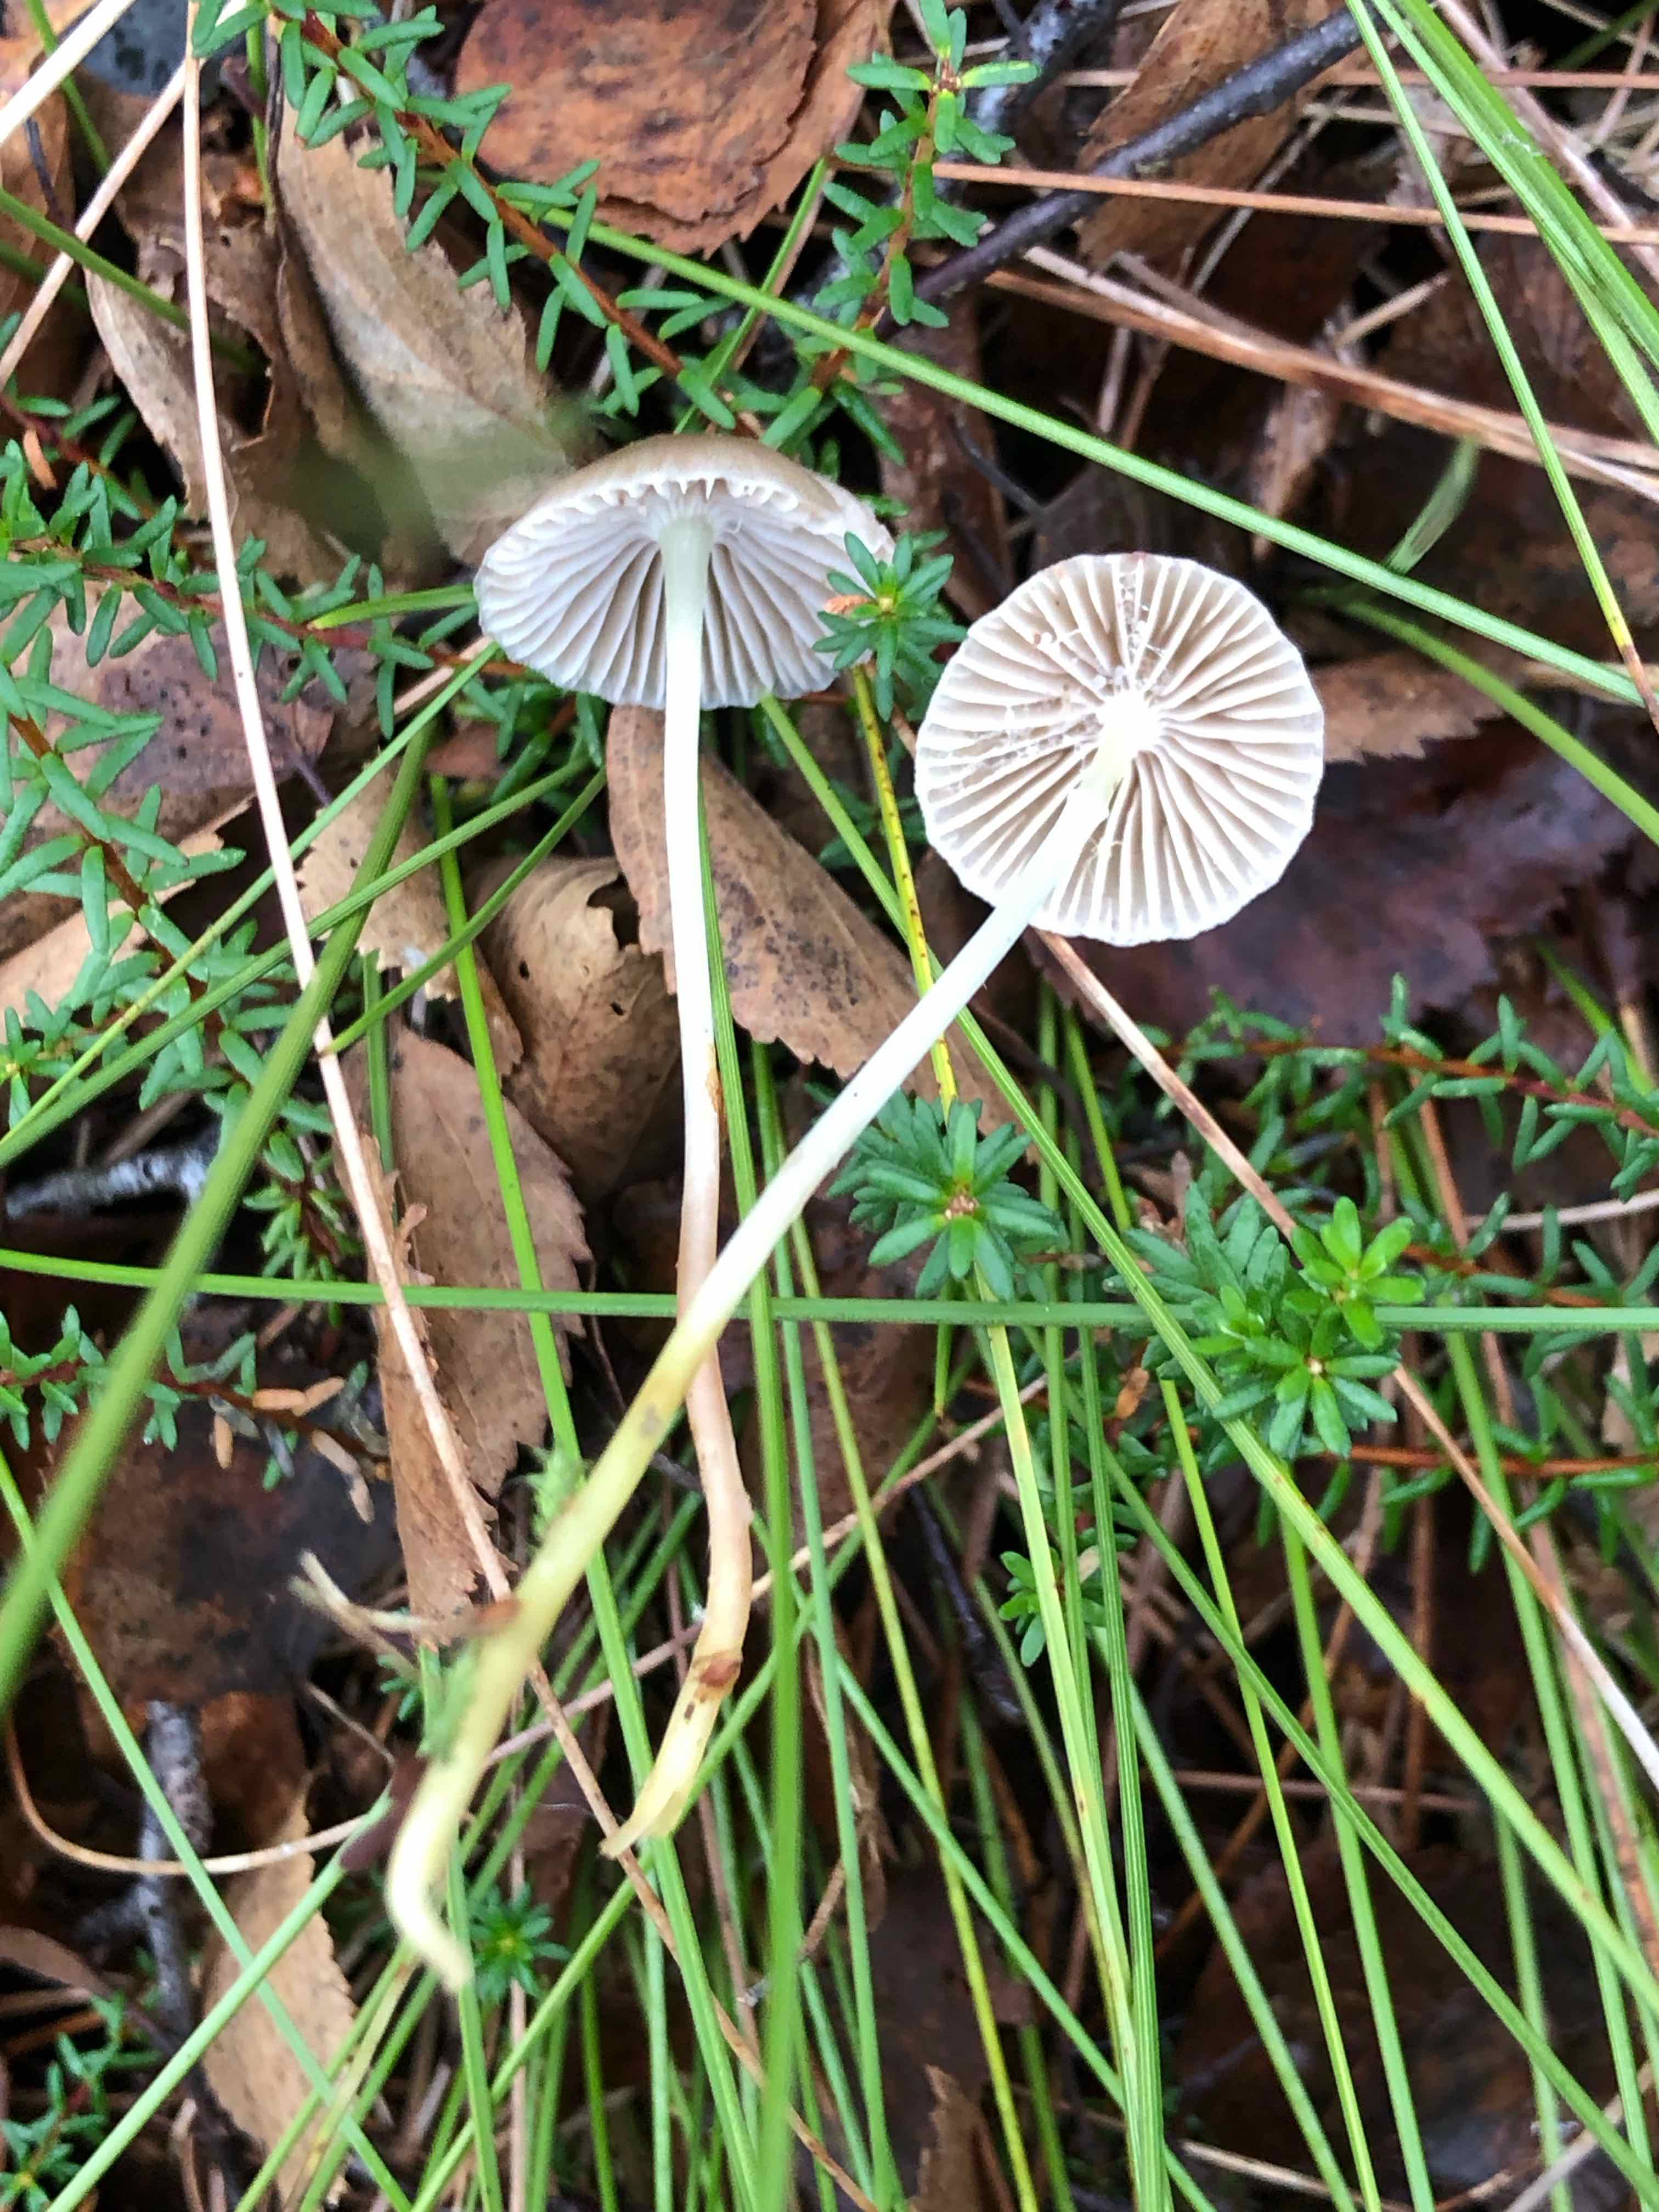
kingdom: Fungi
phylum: Basidiomycota
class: Agaricomycetes
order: Agaricales
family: Mycenaceae
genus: Mycena
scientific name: Mycena epipterygia
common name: gulstokket huesvamp
